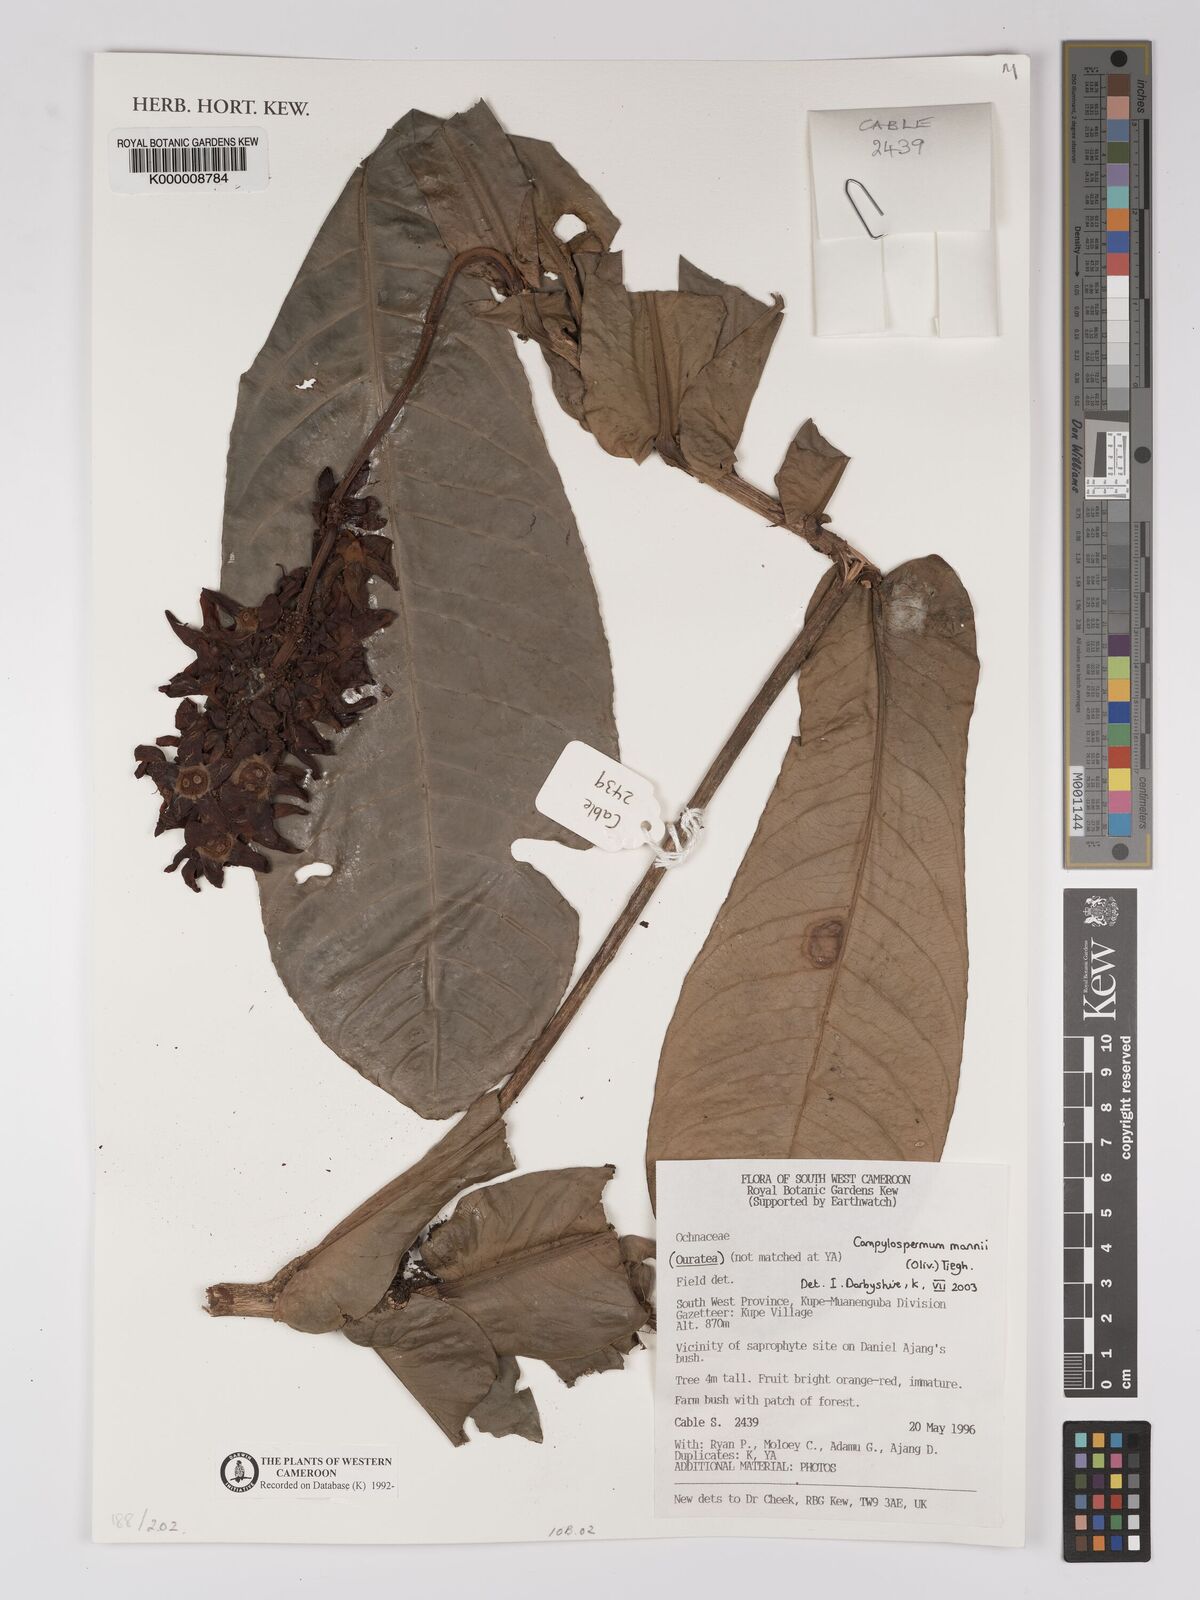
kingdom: Plantae
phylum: Tracheophyta
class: Magnoliopsida
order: Malpighiales
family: Ochnaceae
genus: Campylospermum
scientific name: Campylospermum mannii
